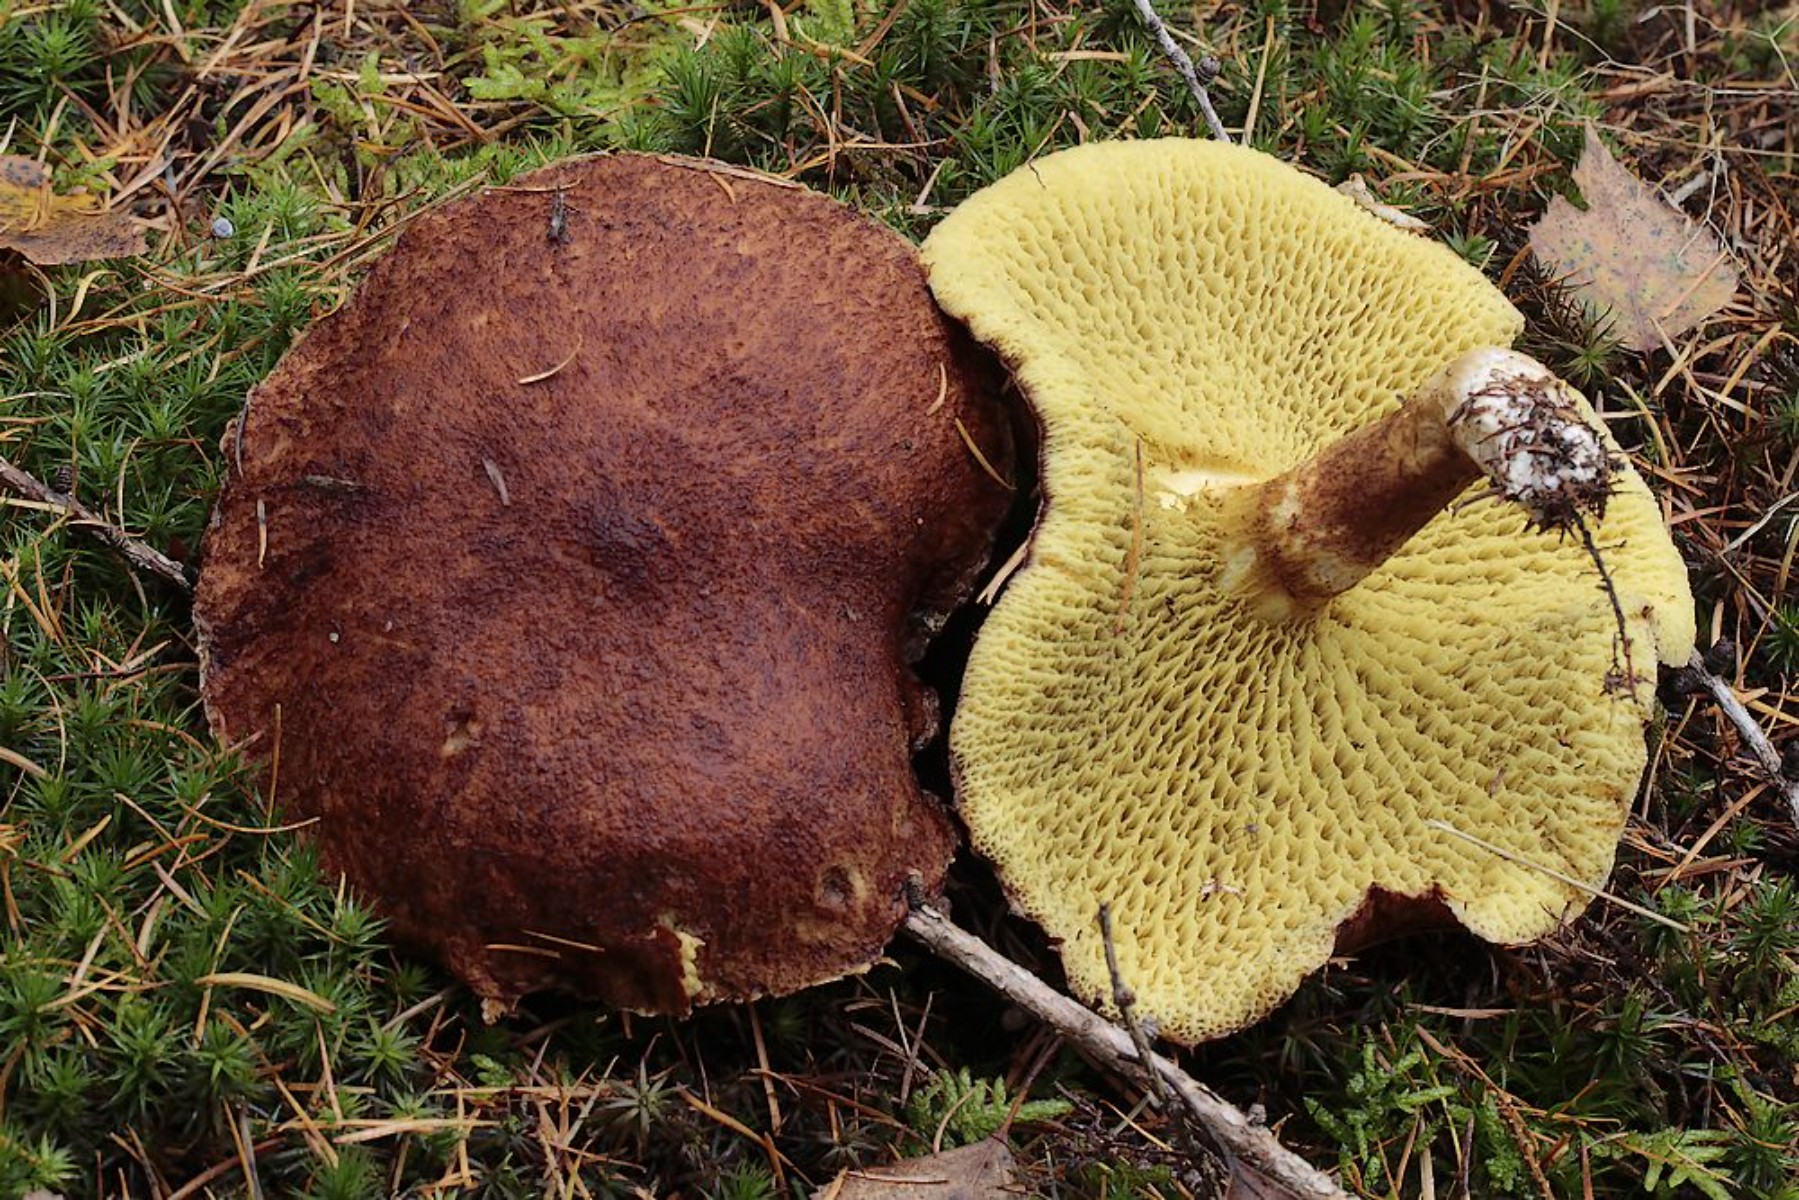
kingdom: Fungi
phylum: Basidiomycota
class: Agaricomycetes
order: Boletales
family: Suillaceae
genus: Suillus
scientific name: Suillus cavipes
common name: hulstokket slimrørhat
